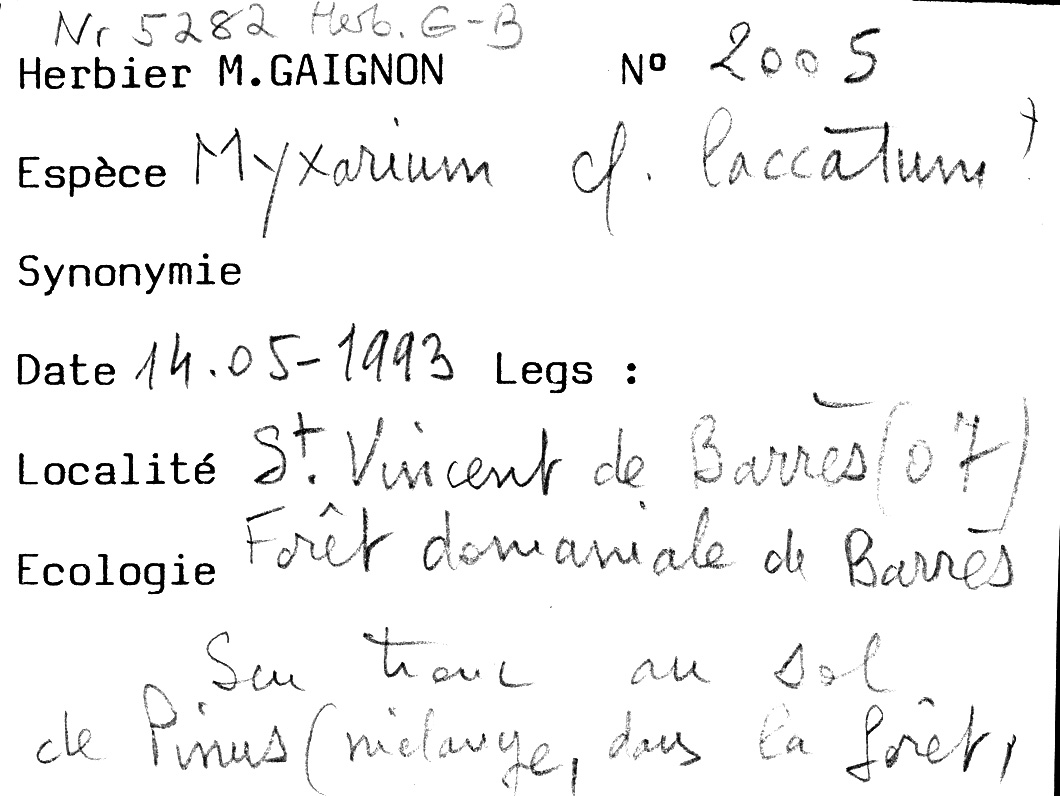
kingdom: Fungi
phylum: Basidiomycota
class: Tremellomycetes
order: Tremellales
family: Exidiaceae
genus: Exidiopsis
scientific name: Exidiopsis effusa
